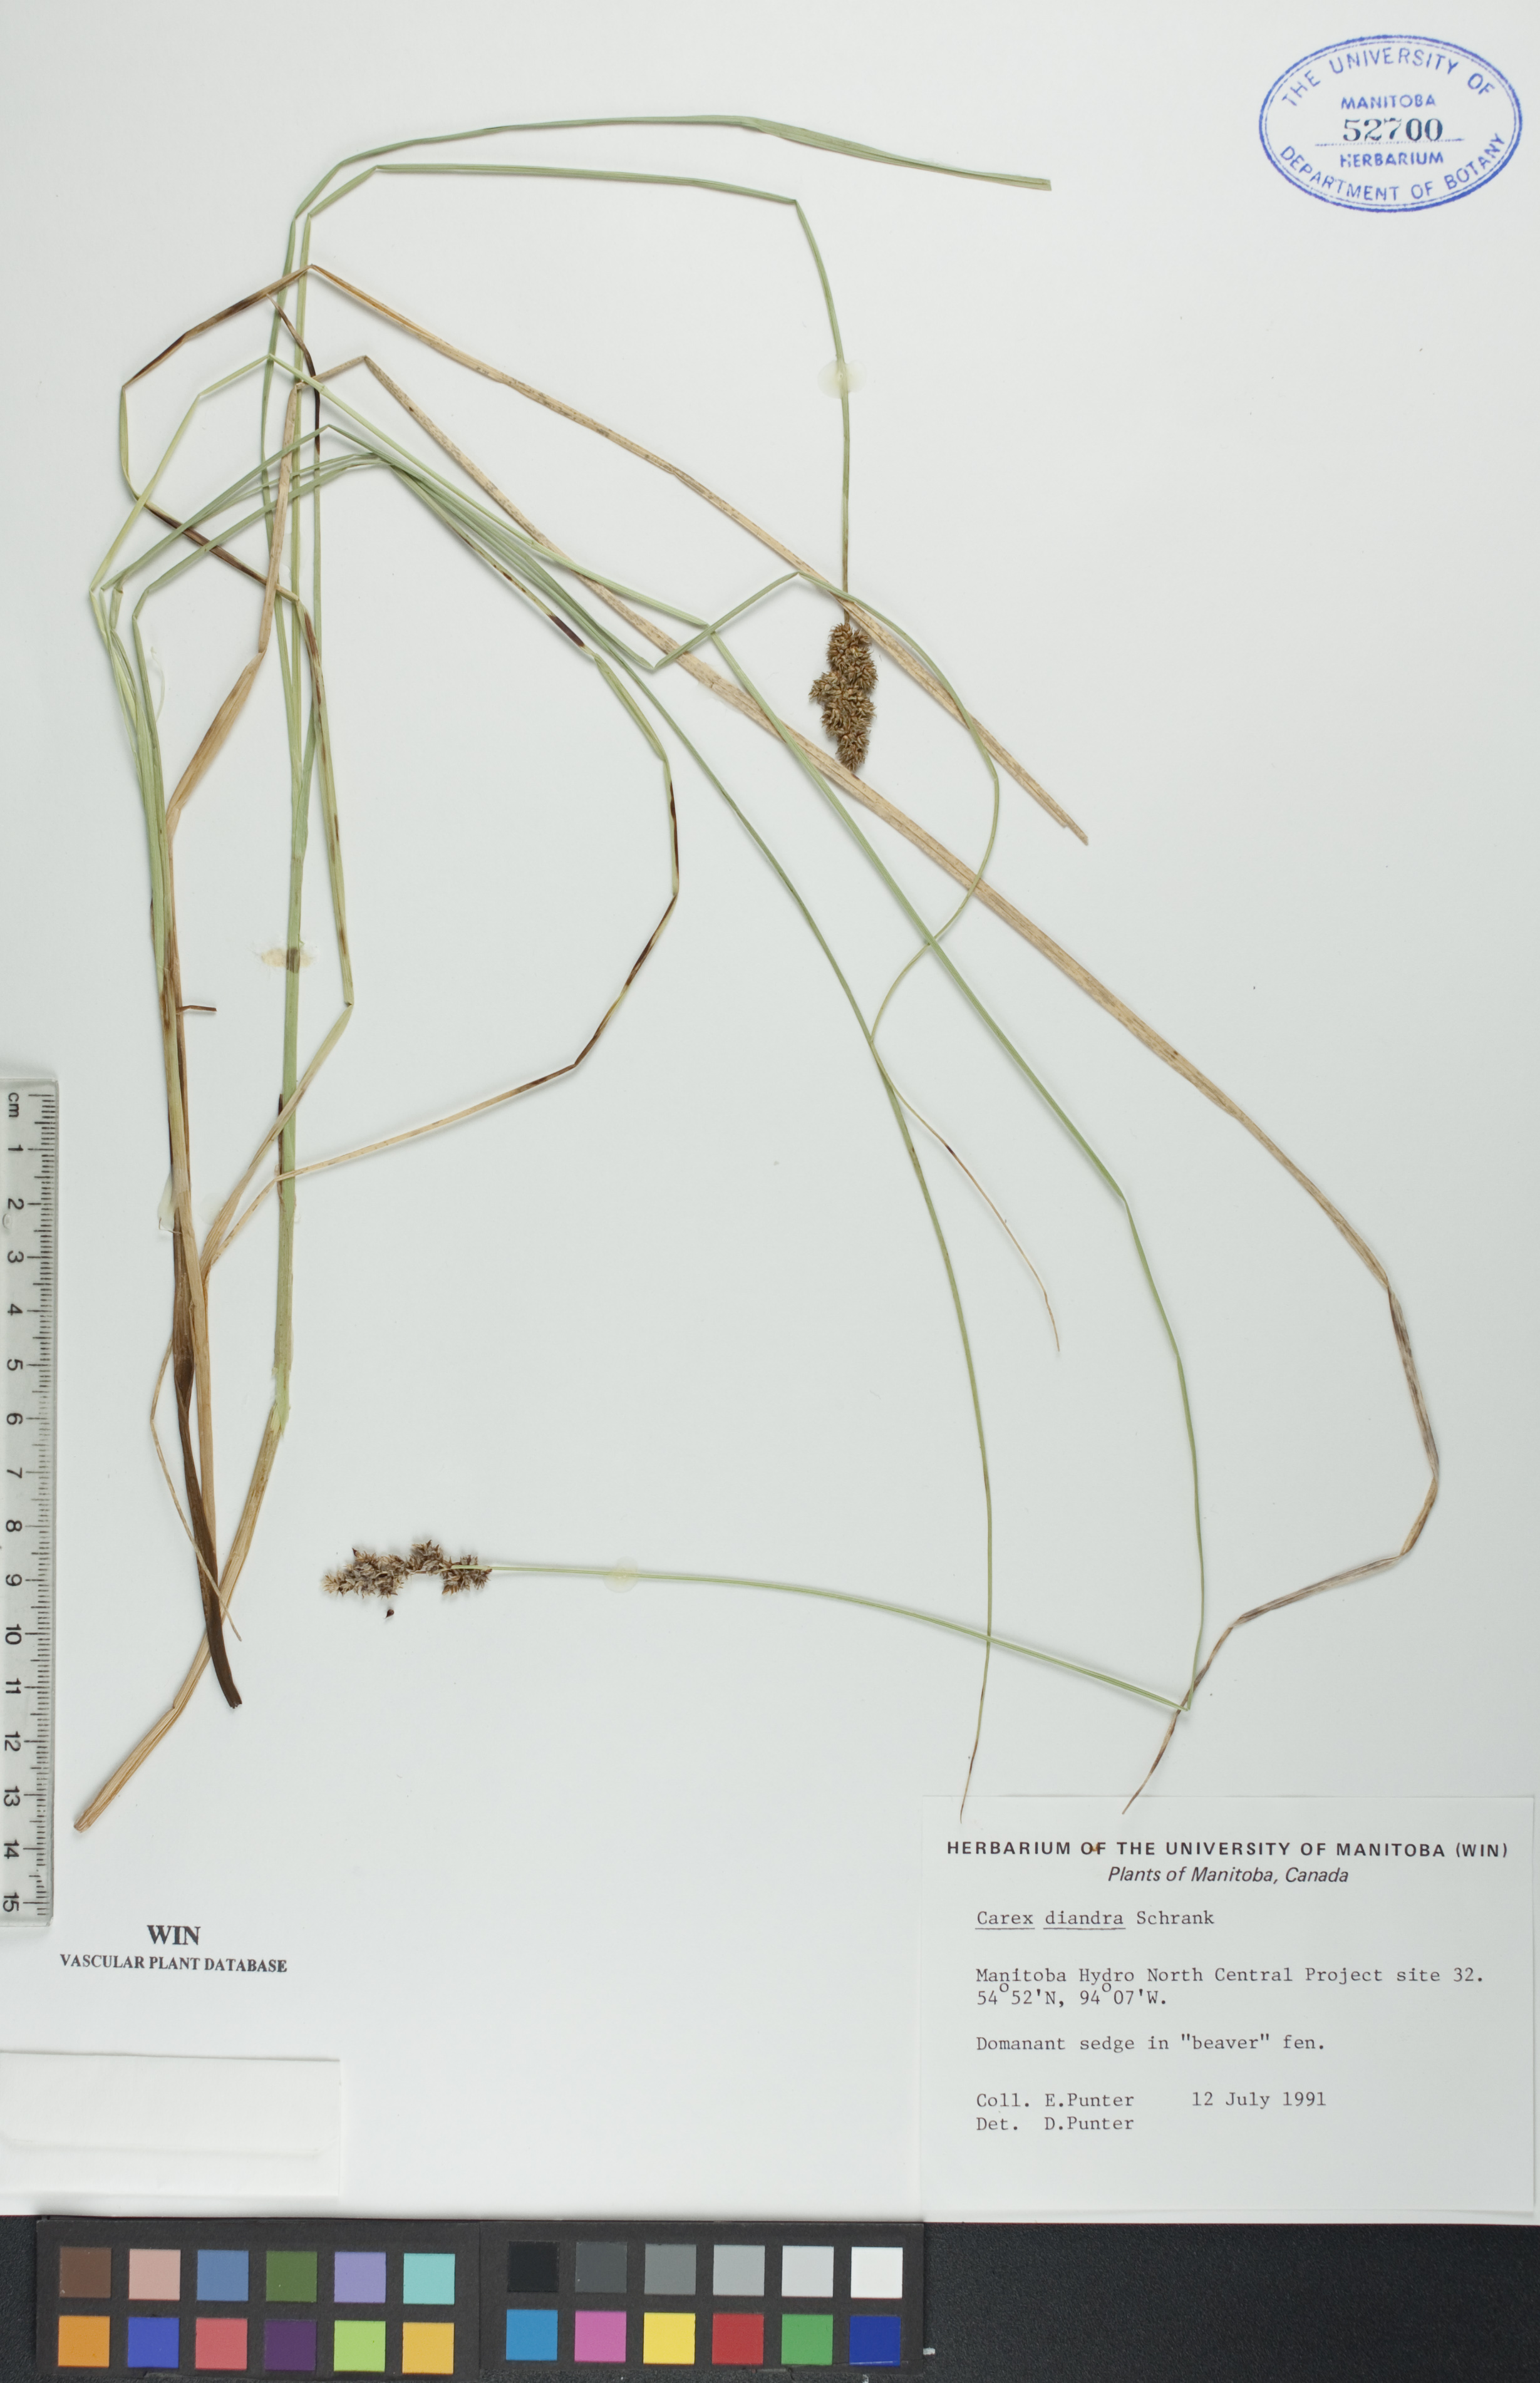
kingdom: Plantae
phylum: Tracheophyta
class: Liliopsida
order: Poales
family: Cyperaceae
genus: Carex
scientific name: Carex diandra
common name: Lesser tussock-sedge
